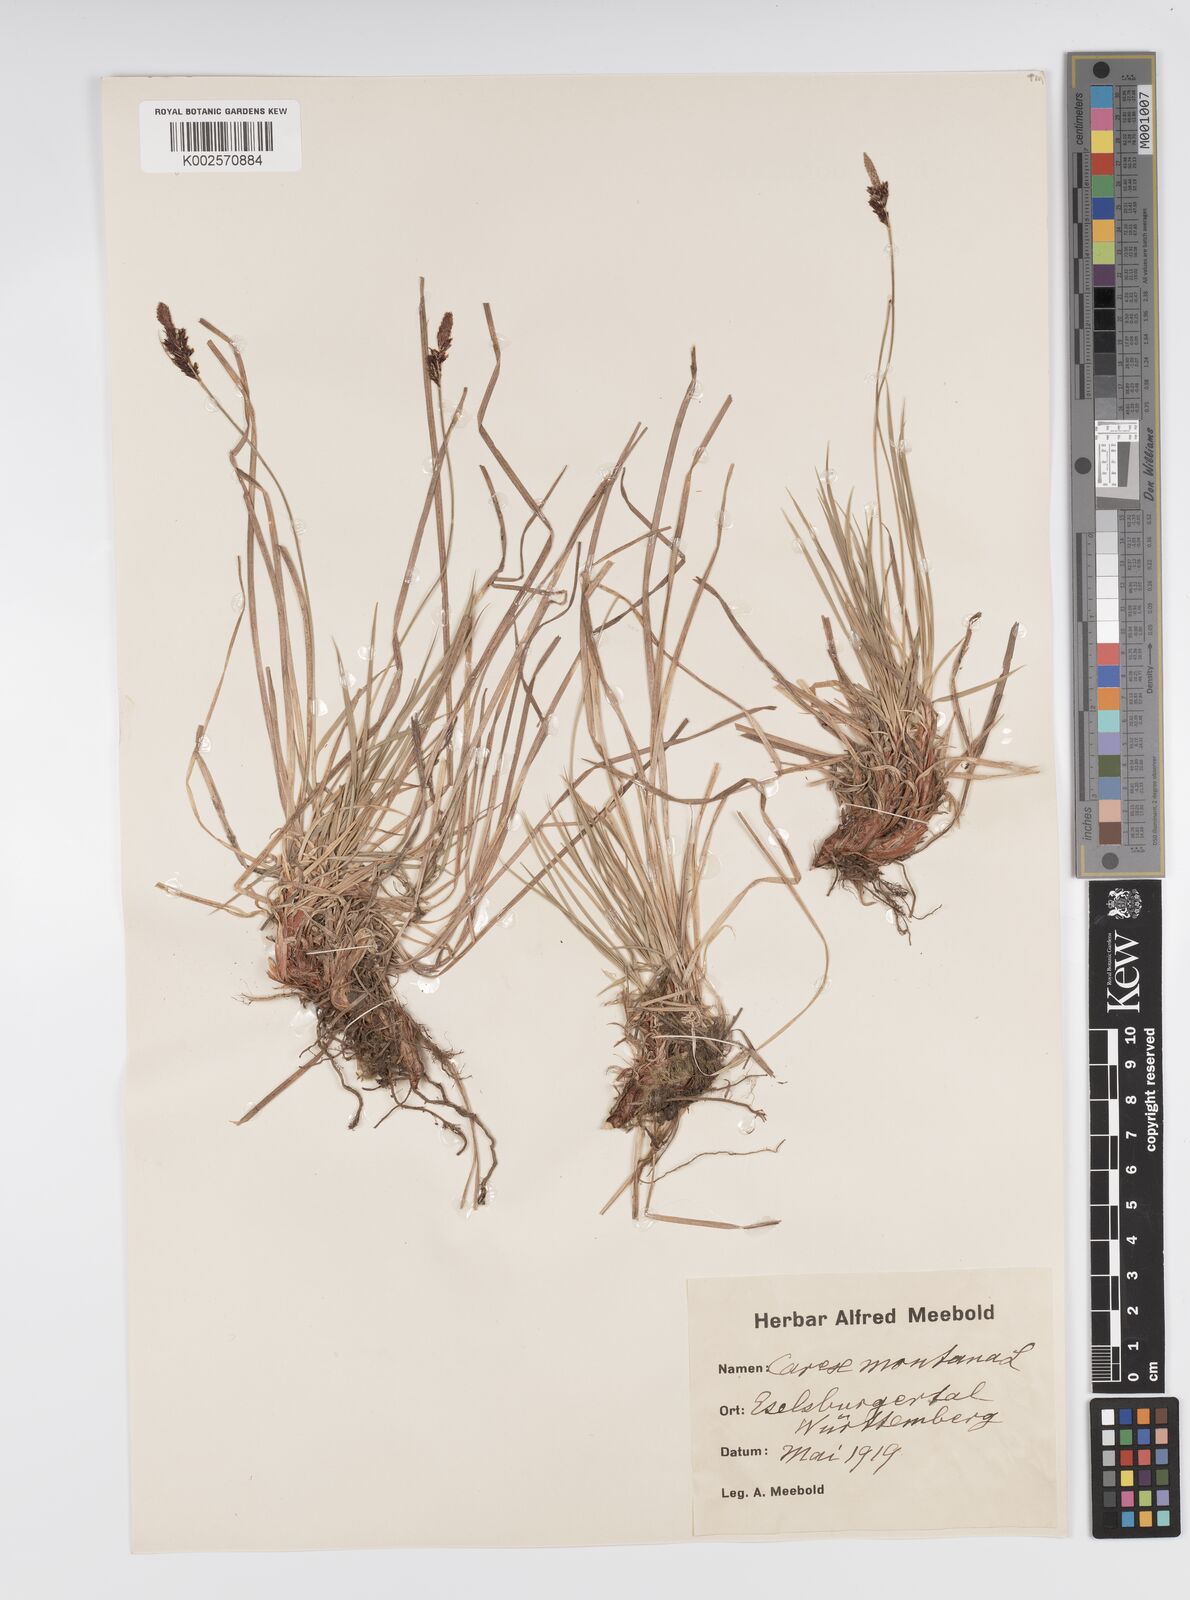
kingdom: Plantae
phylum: Tracheophyta
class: Liliopsida
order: Poales
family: Cyperaceae
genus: Carex
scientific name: Carex montana
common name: Soft-leaved sedge
